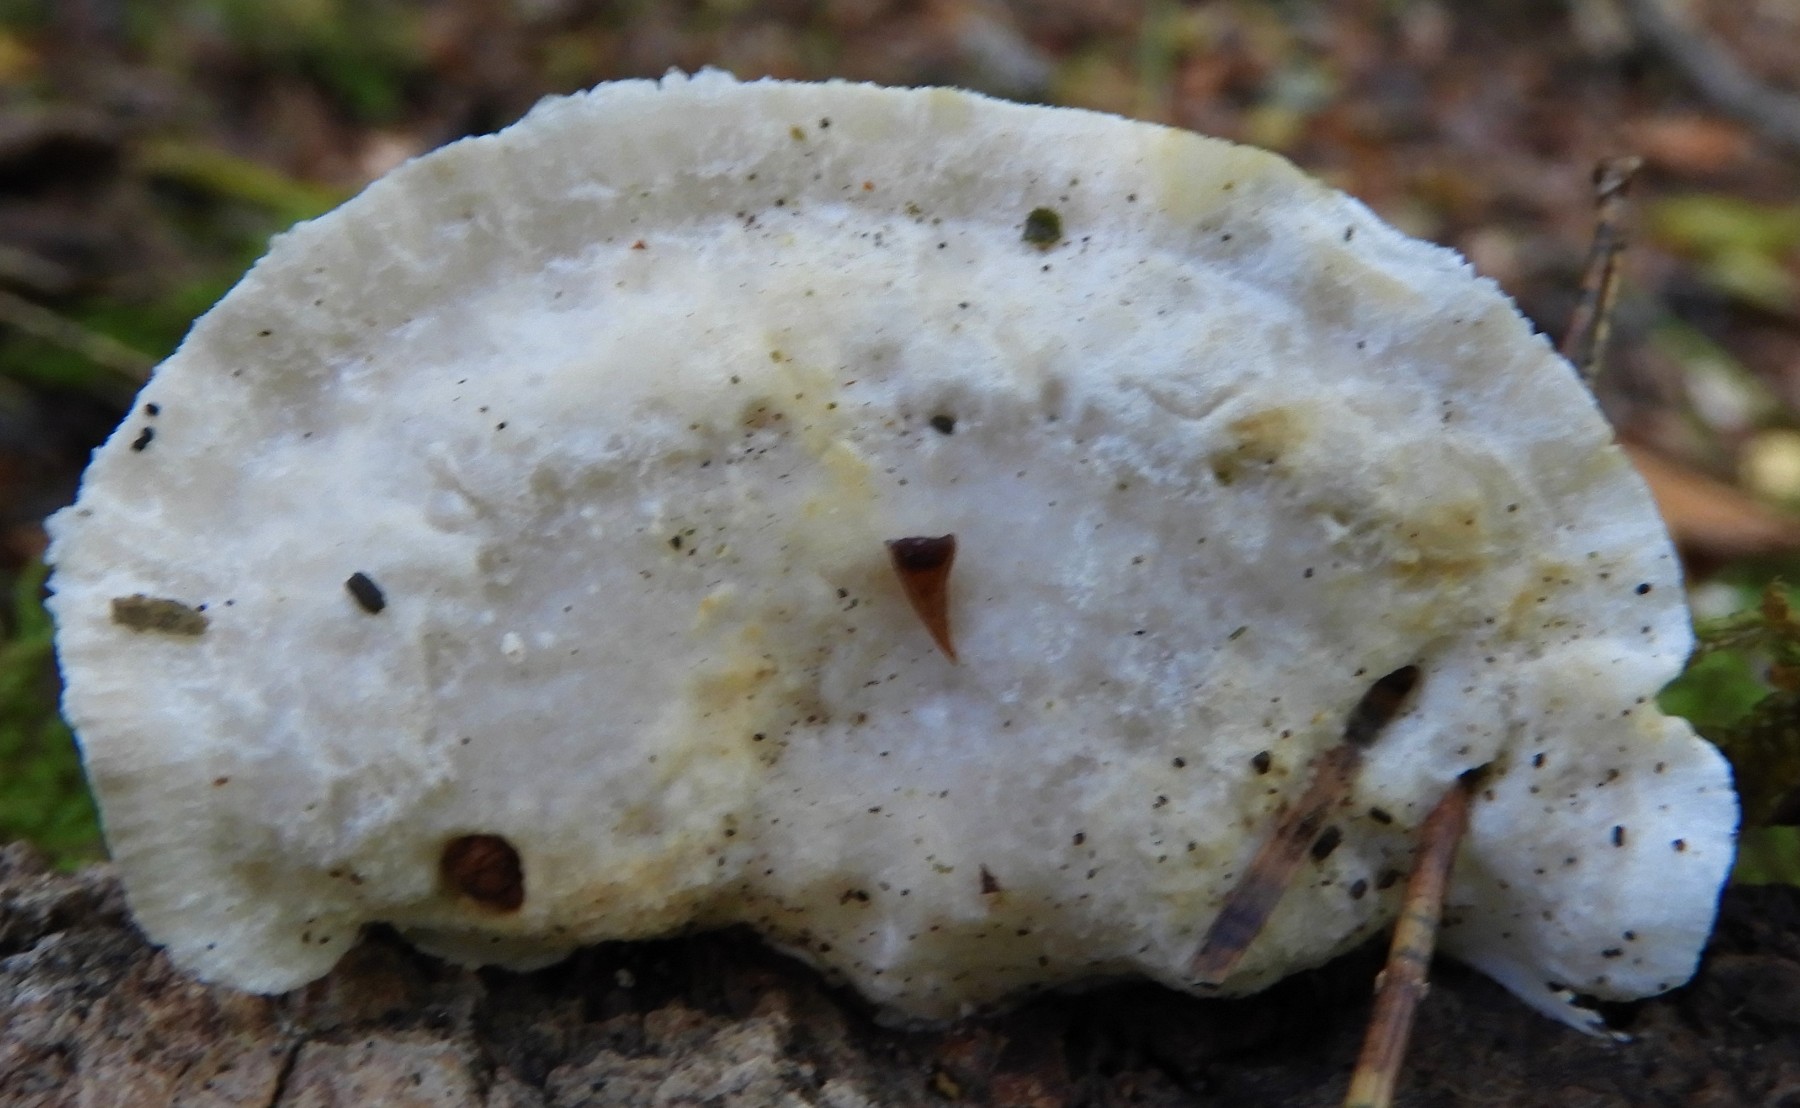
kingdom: Fungi
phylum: Basidiomycota
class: Agaricomycetes
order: Polyporales
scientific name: Polyporales
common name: poresvampordenen
